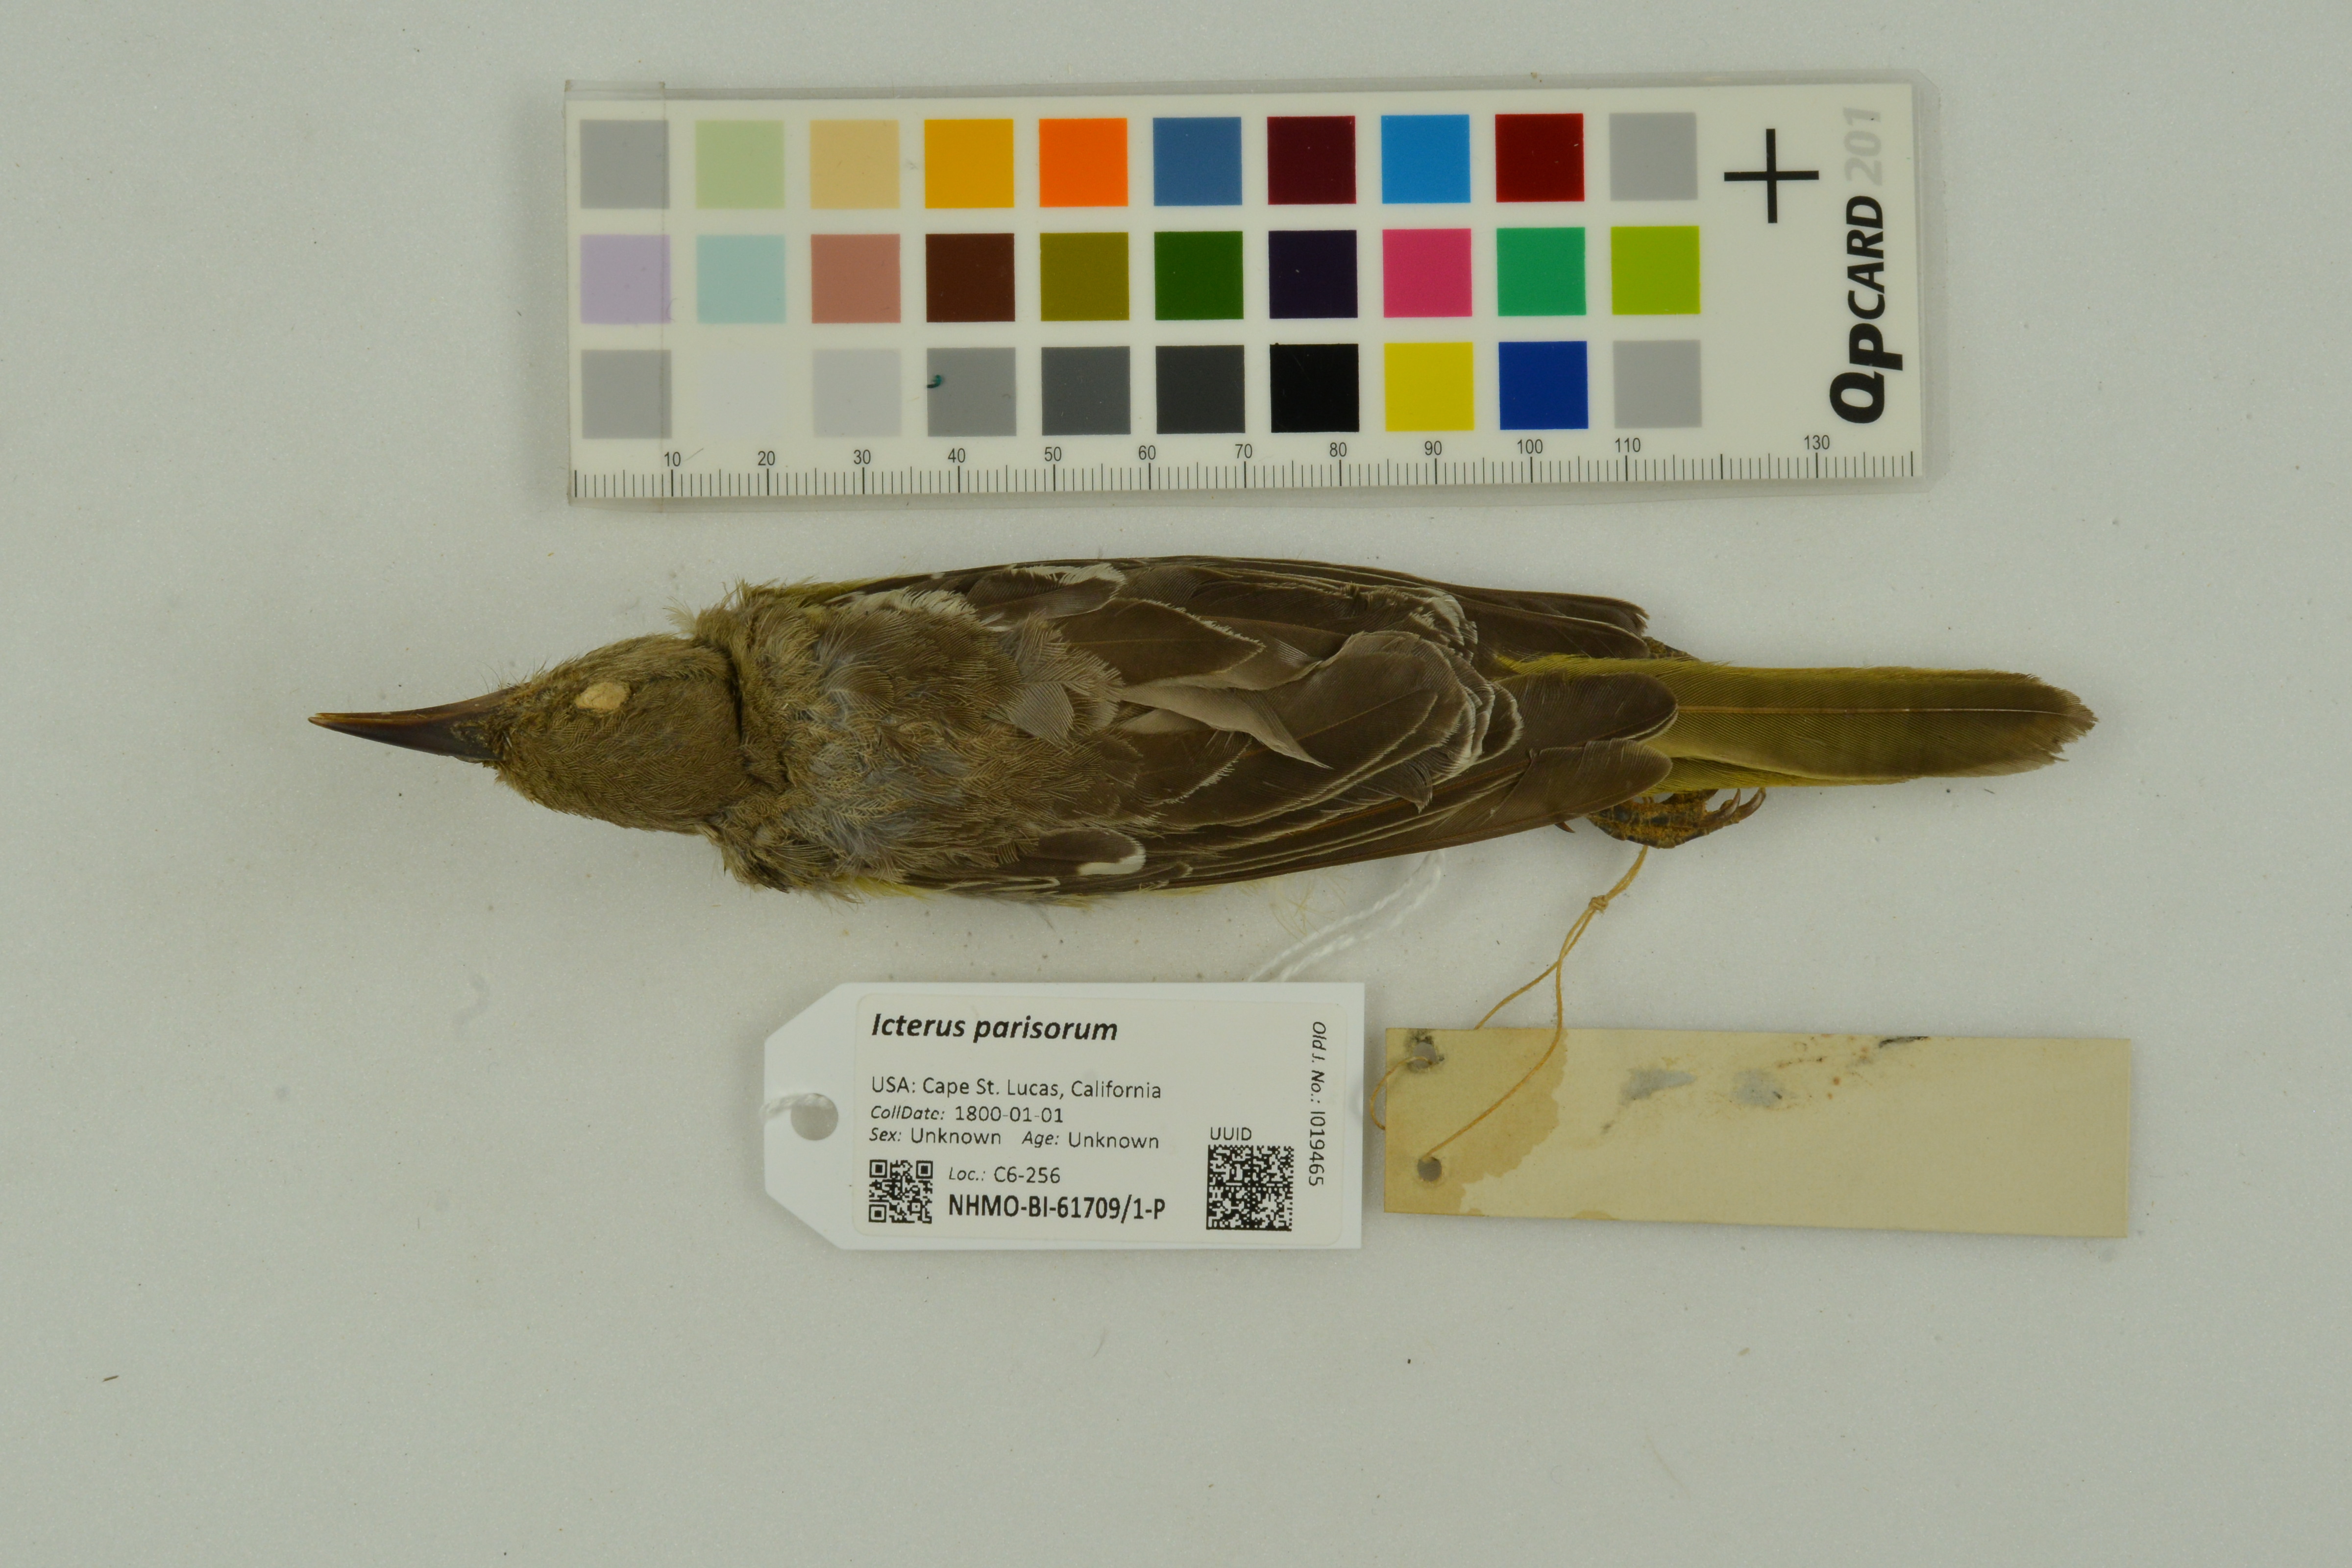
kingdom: Animalia
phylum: Chordata
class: Aves
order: Passeriformes
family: Icteridae
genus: Icterus
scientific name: Icterus parisorum
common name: Scott's oriole
